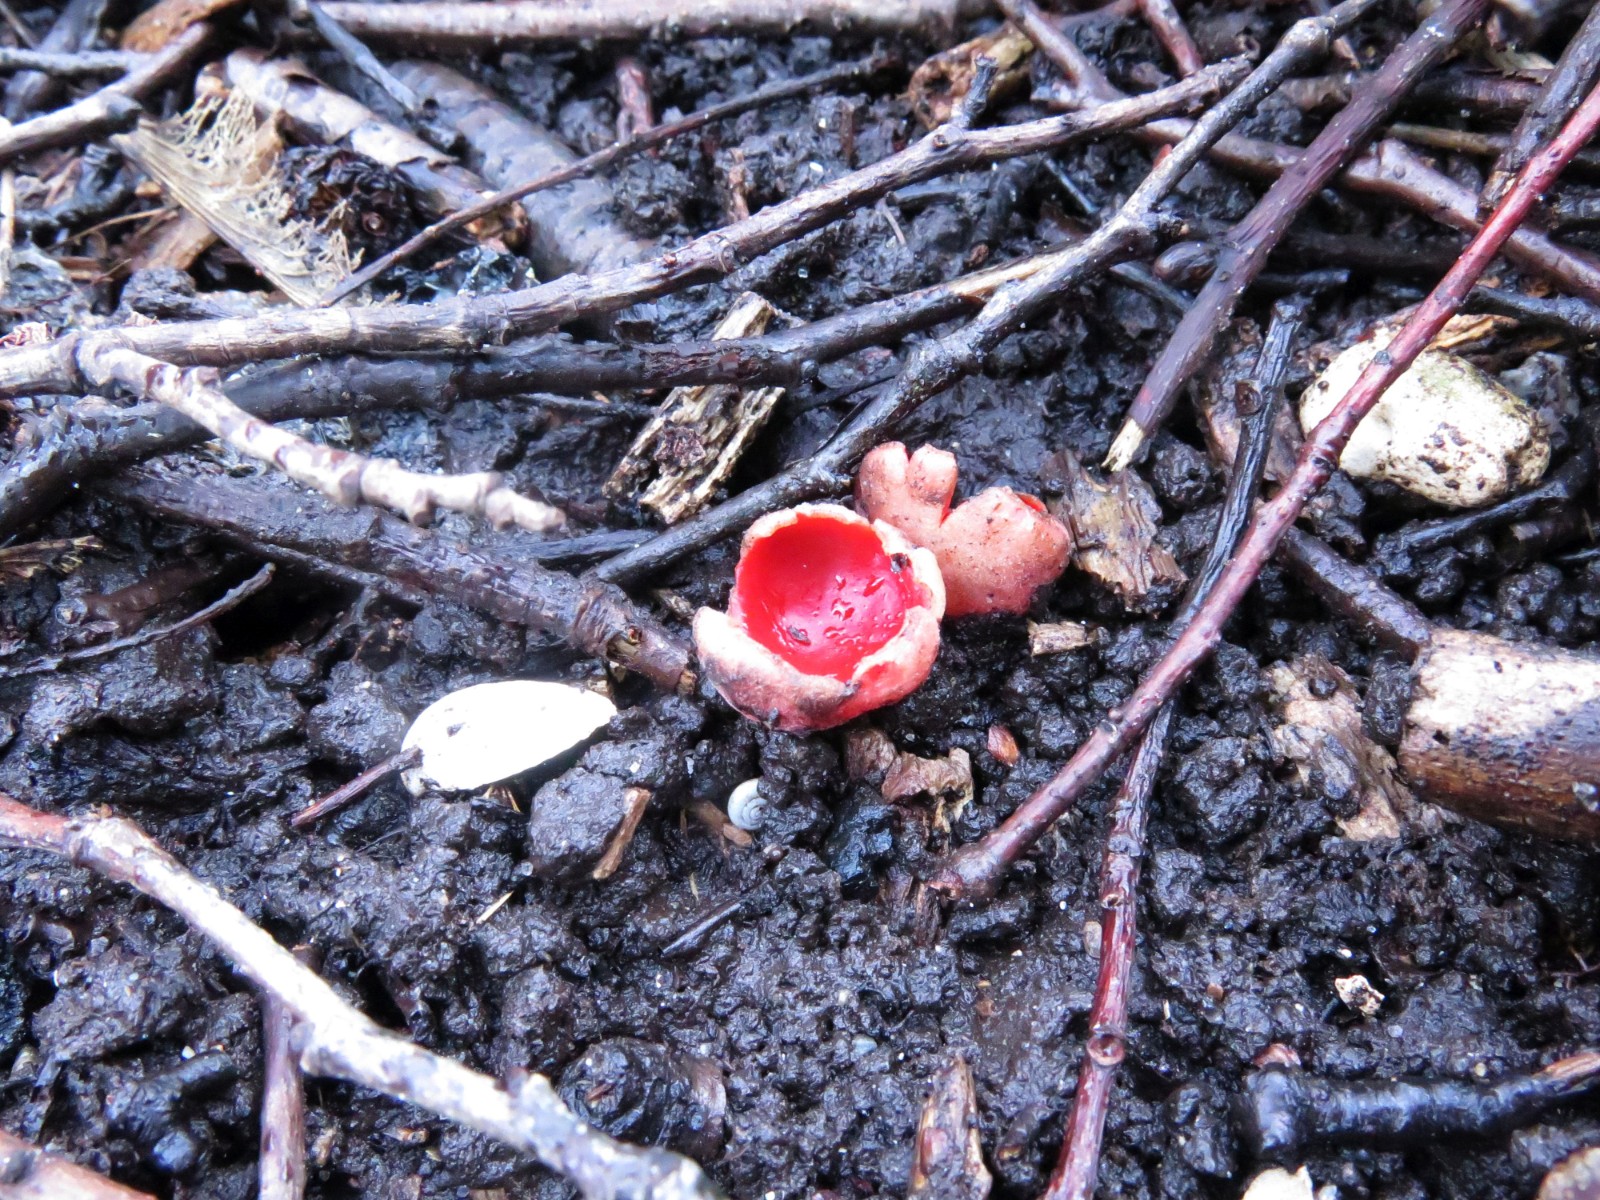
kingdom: Fungi
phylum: Ascomycota
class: Pezizomycetes
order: Pezizales
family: Sarcoscyphaceae
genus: Sarcoscypha
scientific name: Sarcoscypha austriaca
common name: krølhåret pragtbæger
